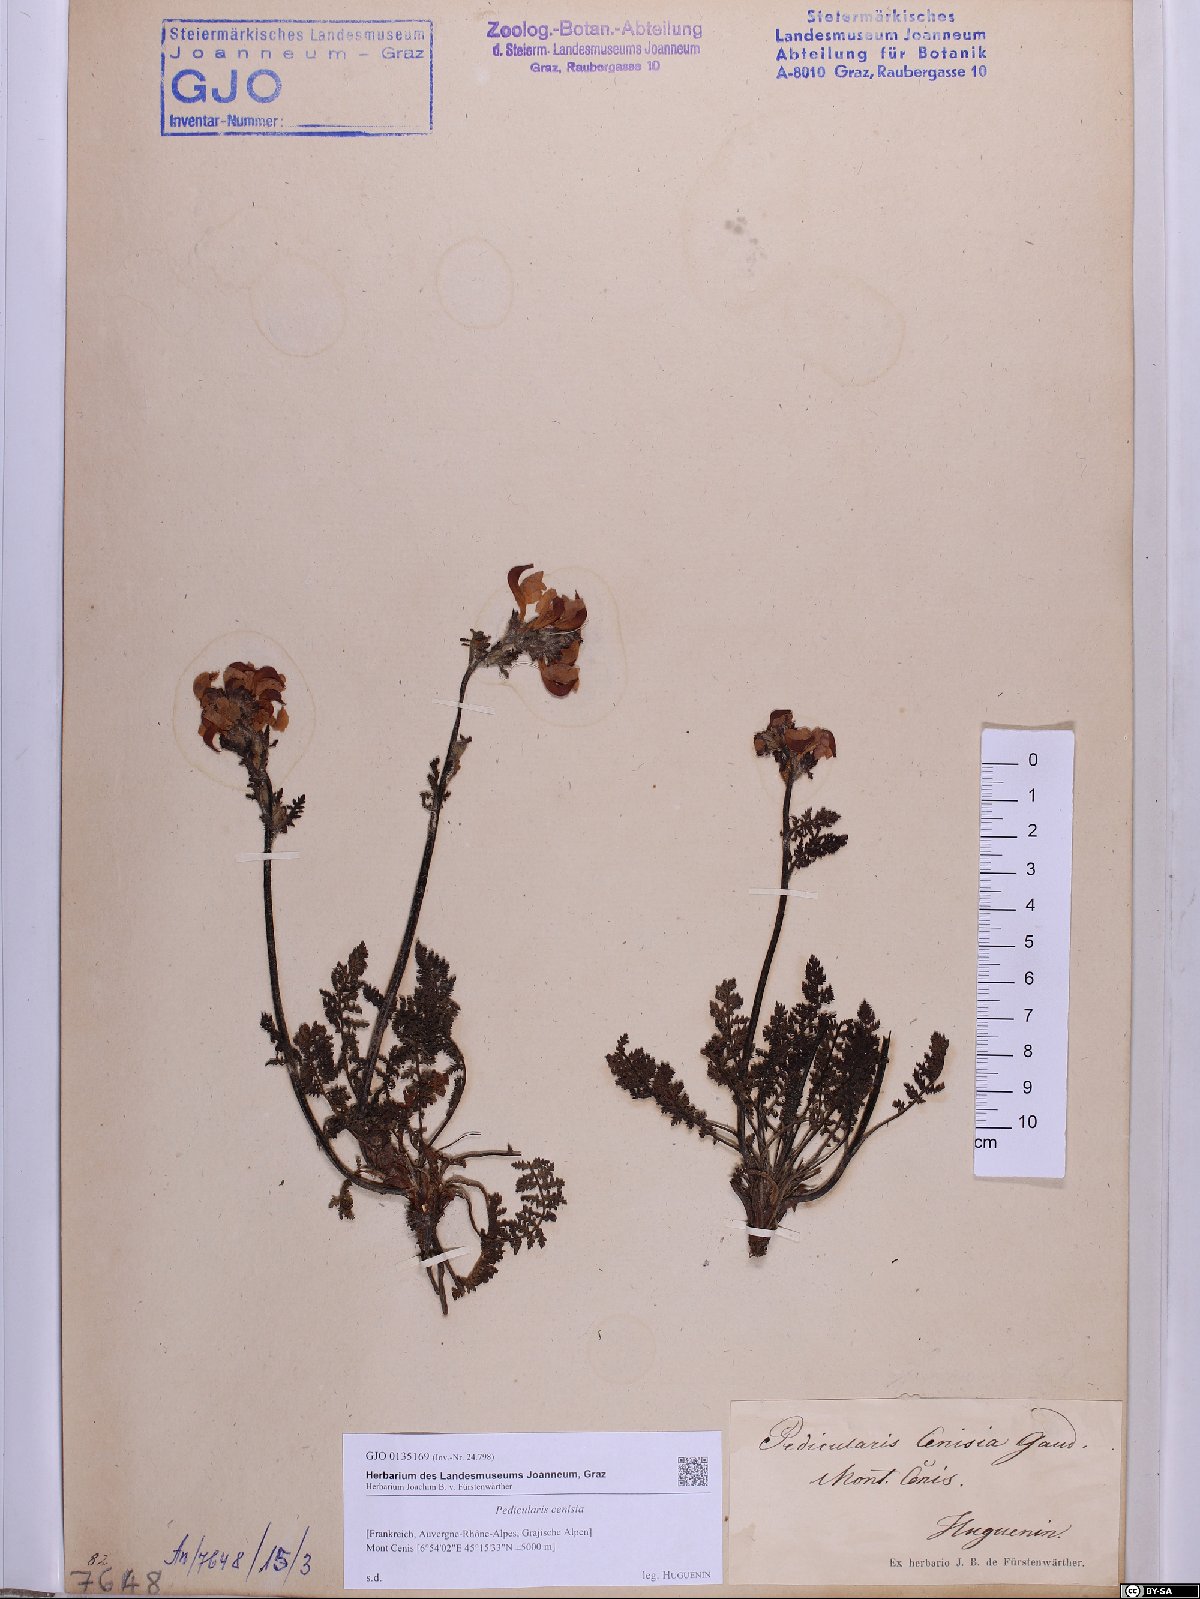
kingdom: Plantae
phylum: Tracheophyta
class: Magnoliopsida
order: Lamiales
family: Orobanchaceae
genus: Pedicularis
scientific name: Pedicularis cenisia
